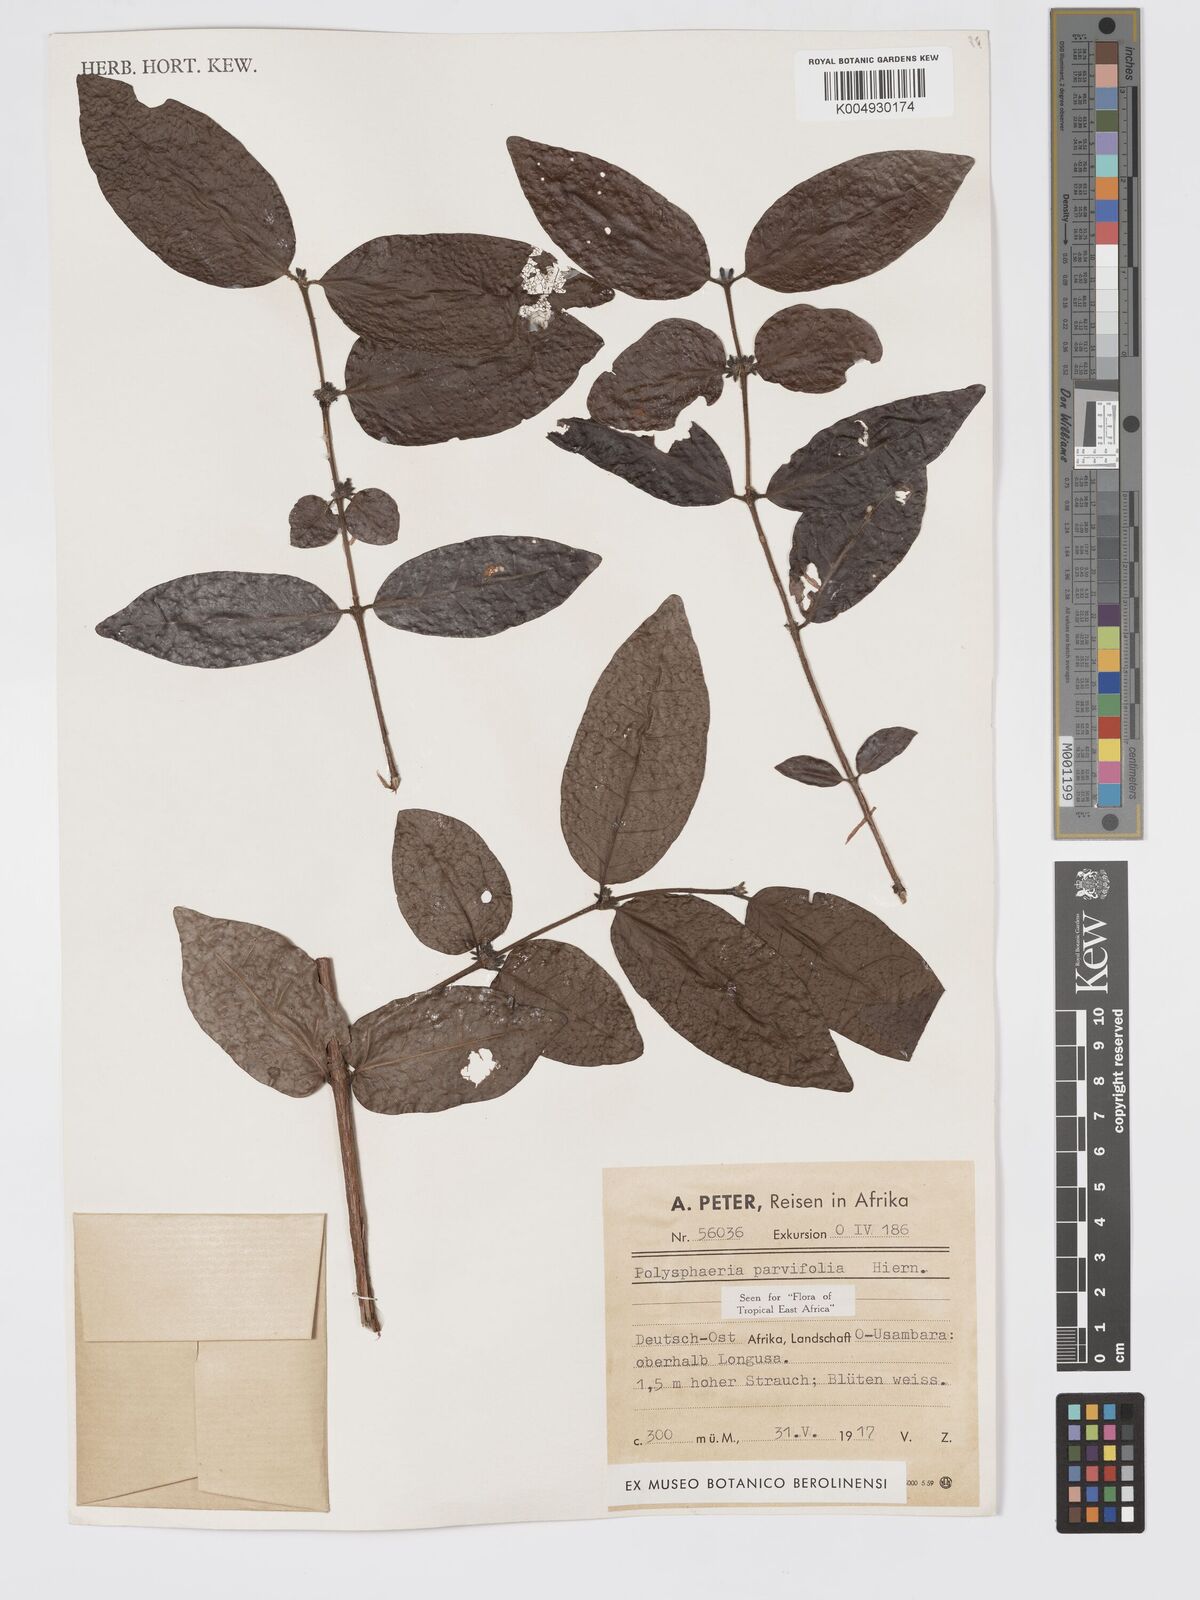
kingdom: Plantae
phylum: Tracheophyta
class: Magnoliopsida
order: Gentianales
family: Rubiaceae
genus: Polysphaeria
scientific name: Polysphaeria parvifolia
